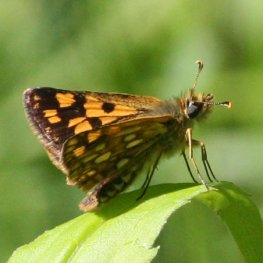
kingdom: Animalia
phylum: Arthropoda
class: Insecta
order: Lepidoptera
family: Hesperiidae
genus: Carterocephalus
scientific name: Carterocephalus palaemon
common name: Chequered Skipper
